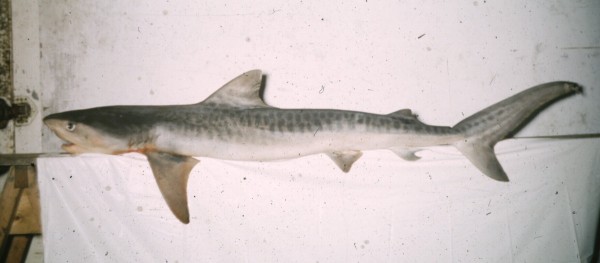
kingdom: Animalia
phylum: Chordata
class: Elasmobranchii
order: Carcharhiniformes
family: Carcharhinidae
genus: Galeocerdo
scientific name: Galeocerdo cuvier
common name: Tiger shark
